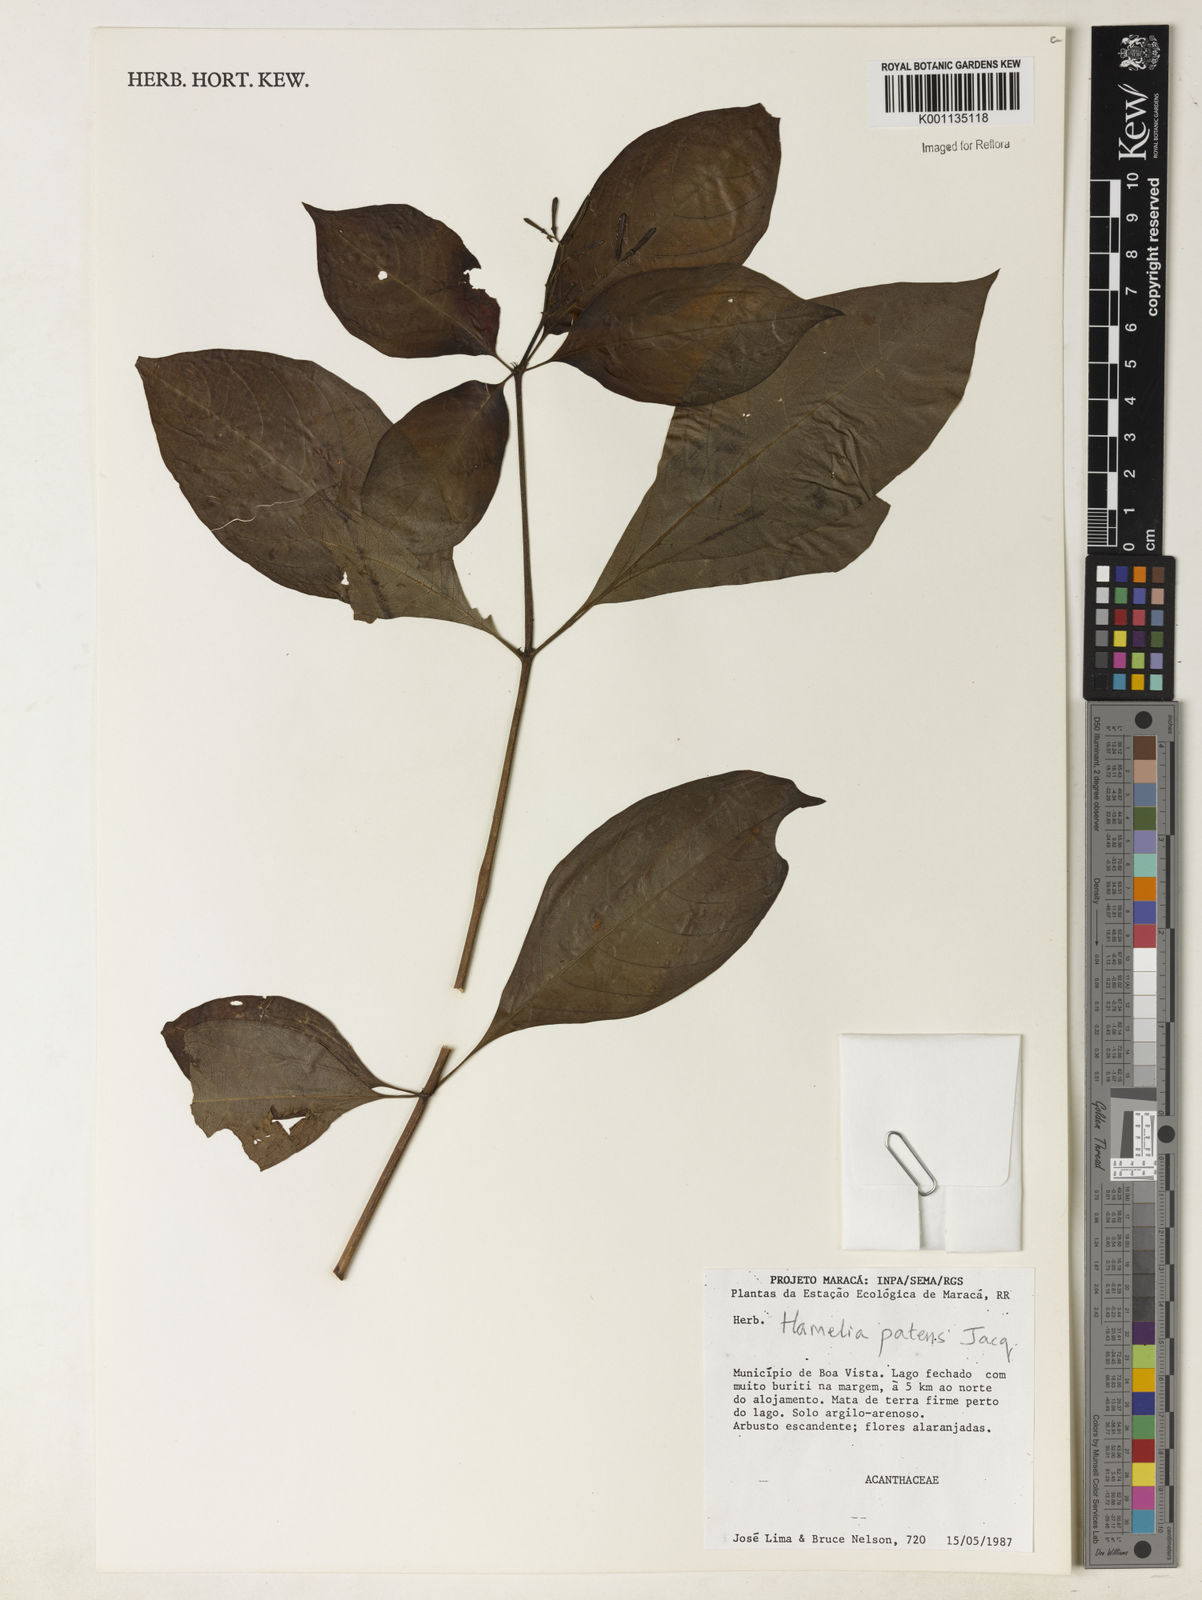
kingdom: Plantae
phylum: Tracheophyta
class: Magnoliopsida
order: Gentianales
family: Rubiaceae
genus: Hamelia
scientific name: Hamelia patens
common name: Redhead
